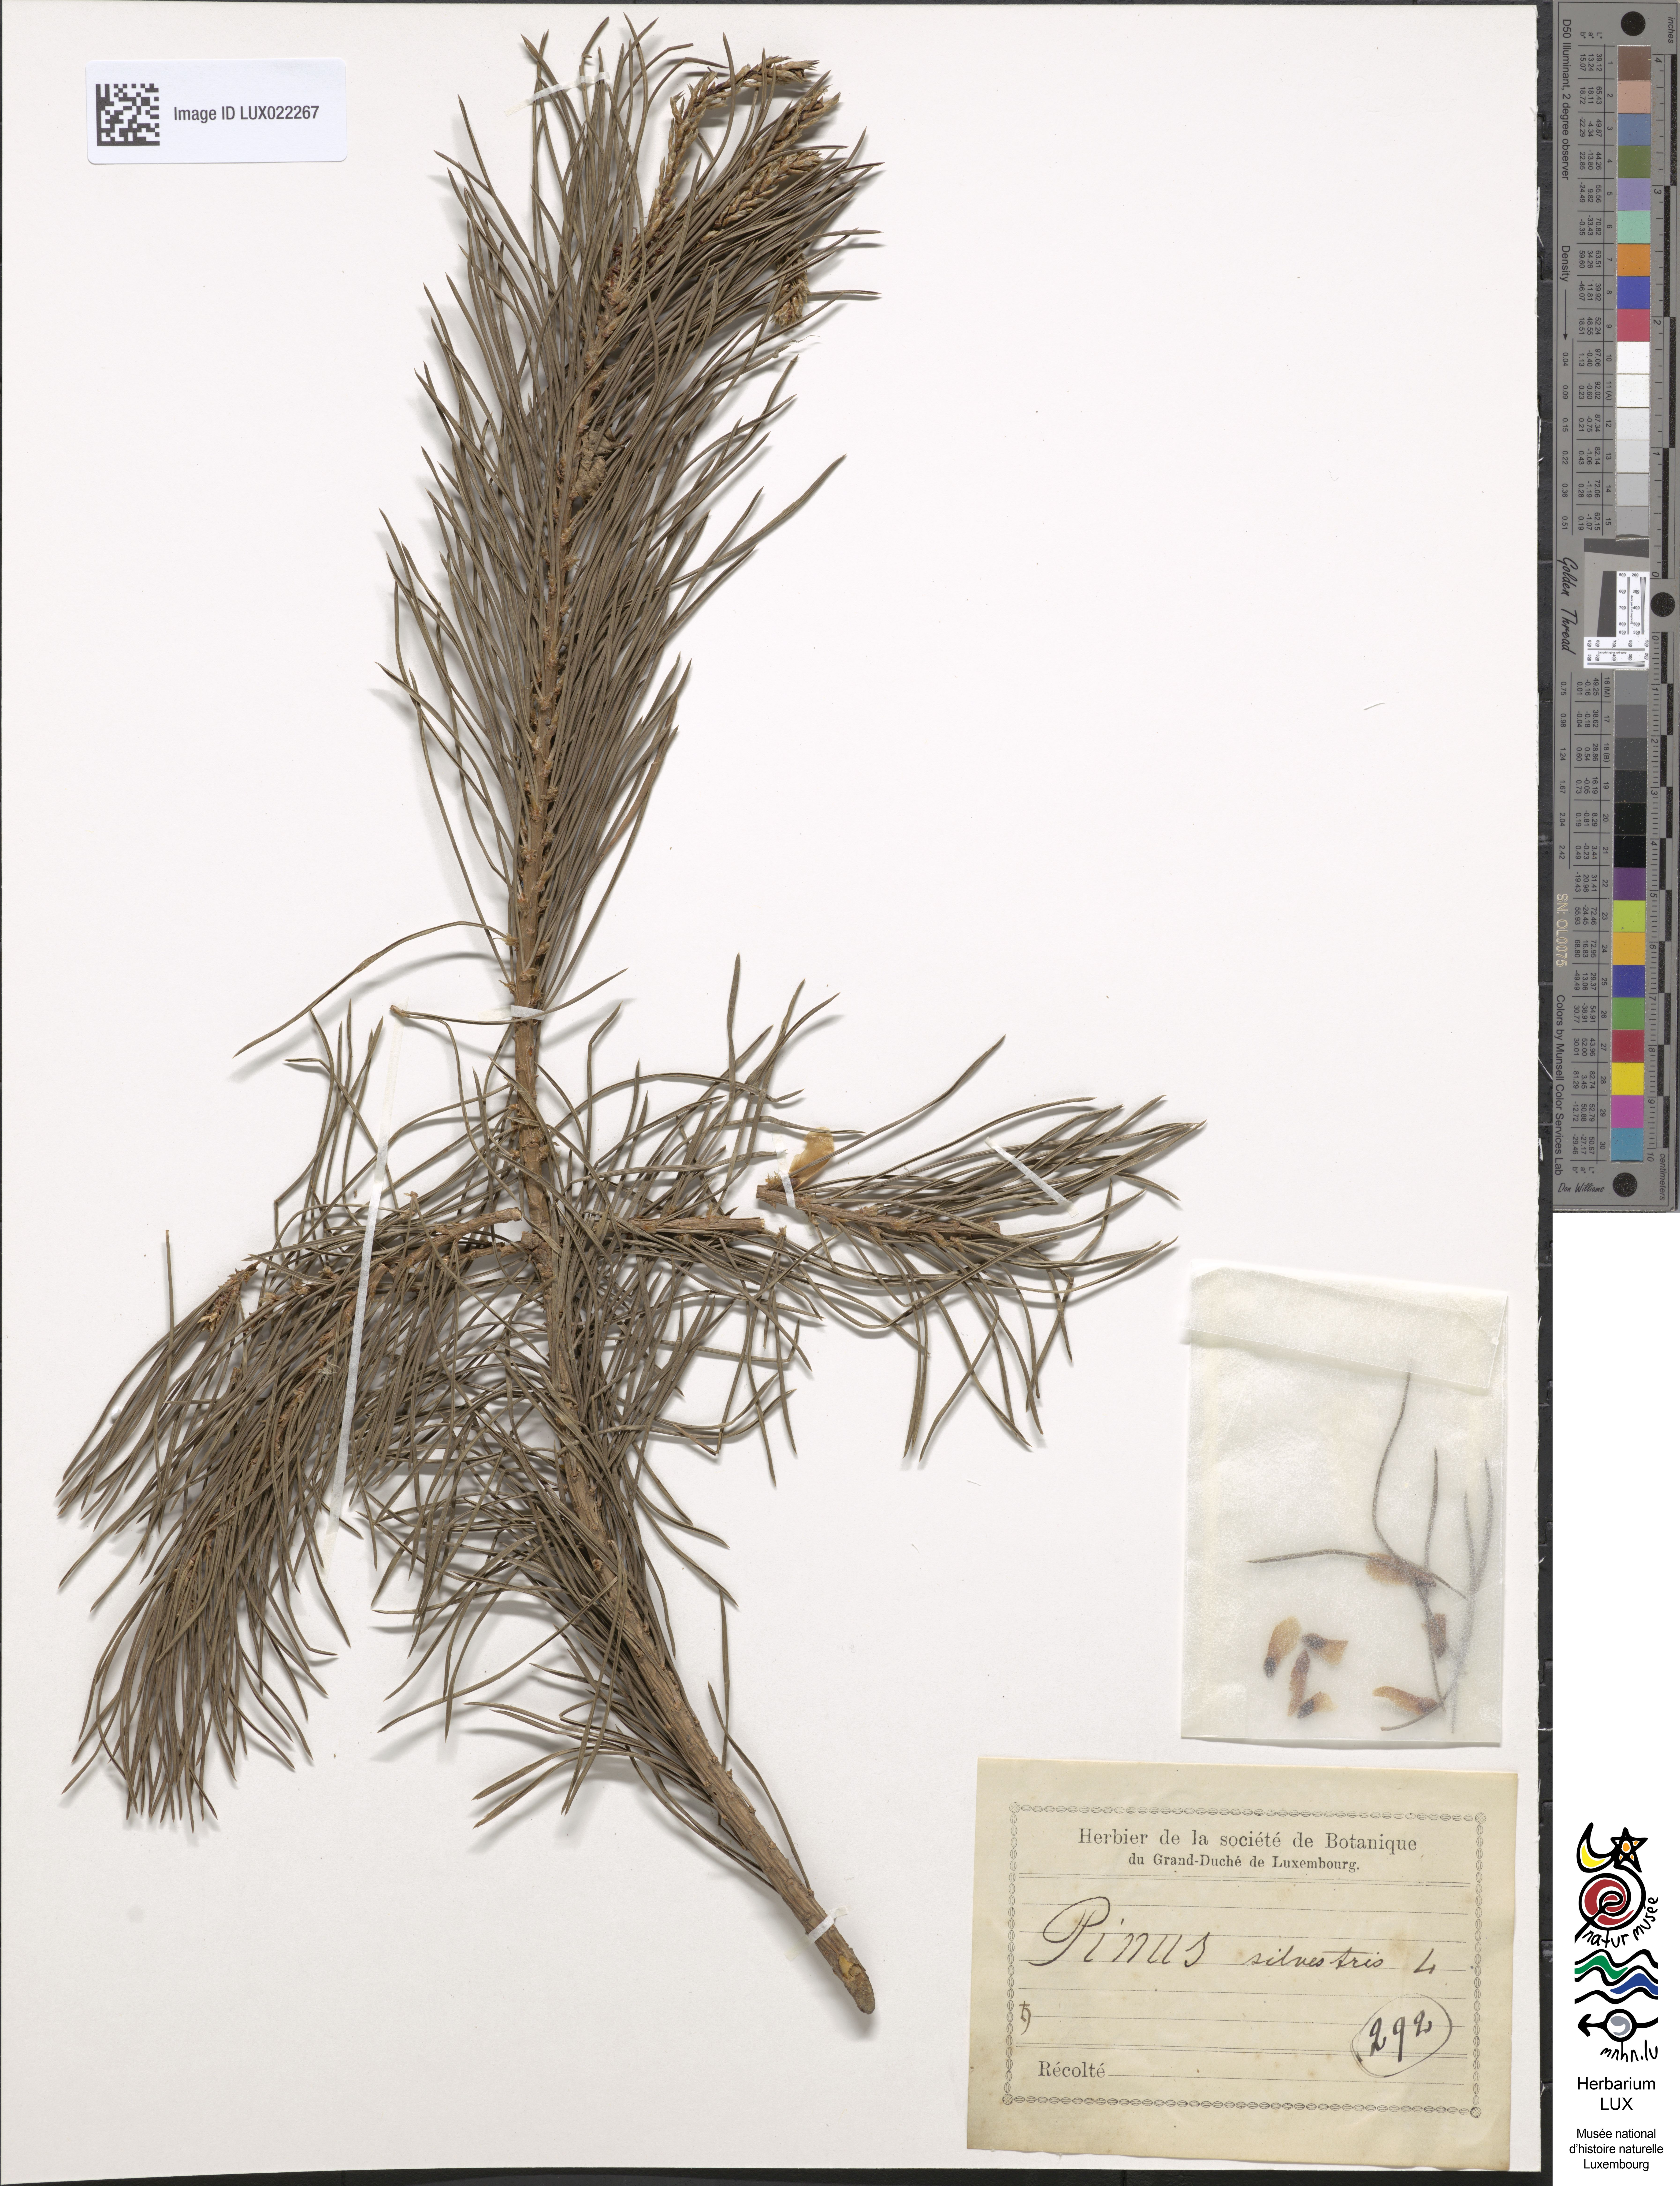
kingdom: Plantae
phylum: Tracheophyta
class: Pinopsida
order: Pinales
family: Pinaceae
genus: Pinus
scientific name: Pinus sylvestris
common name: Scots pine
